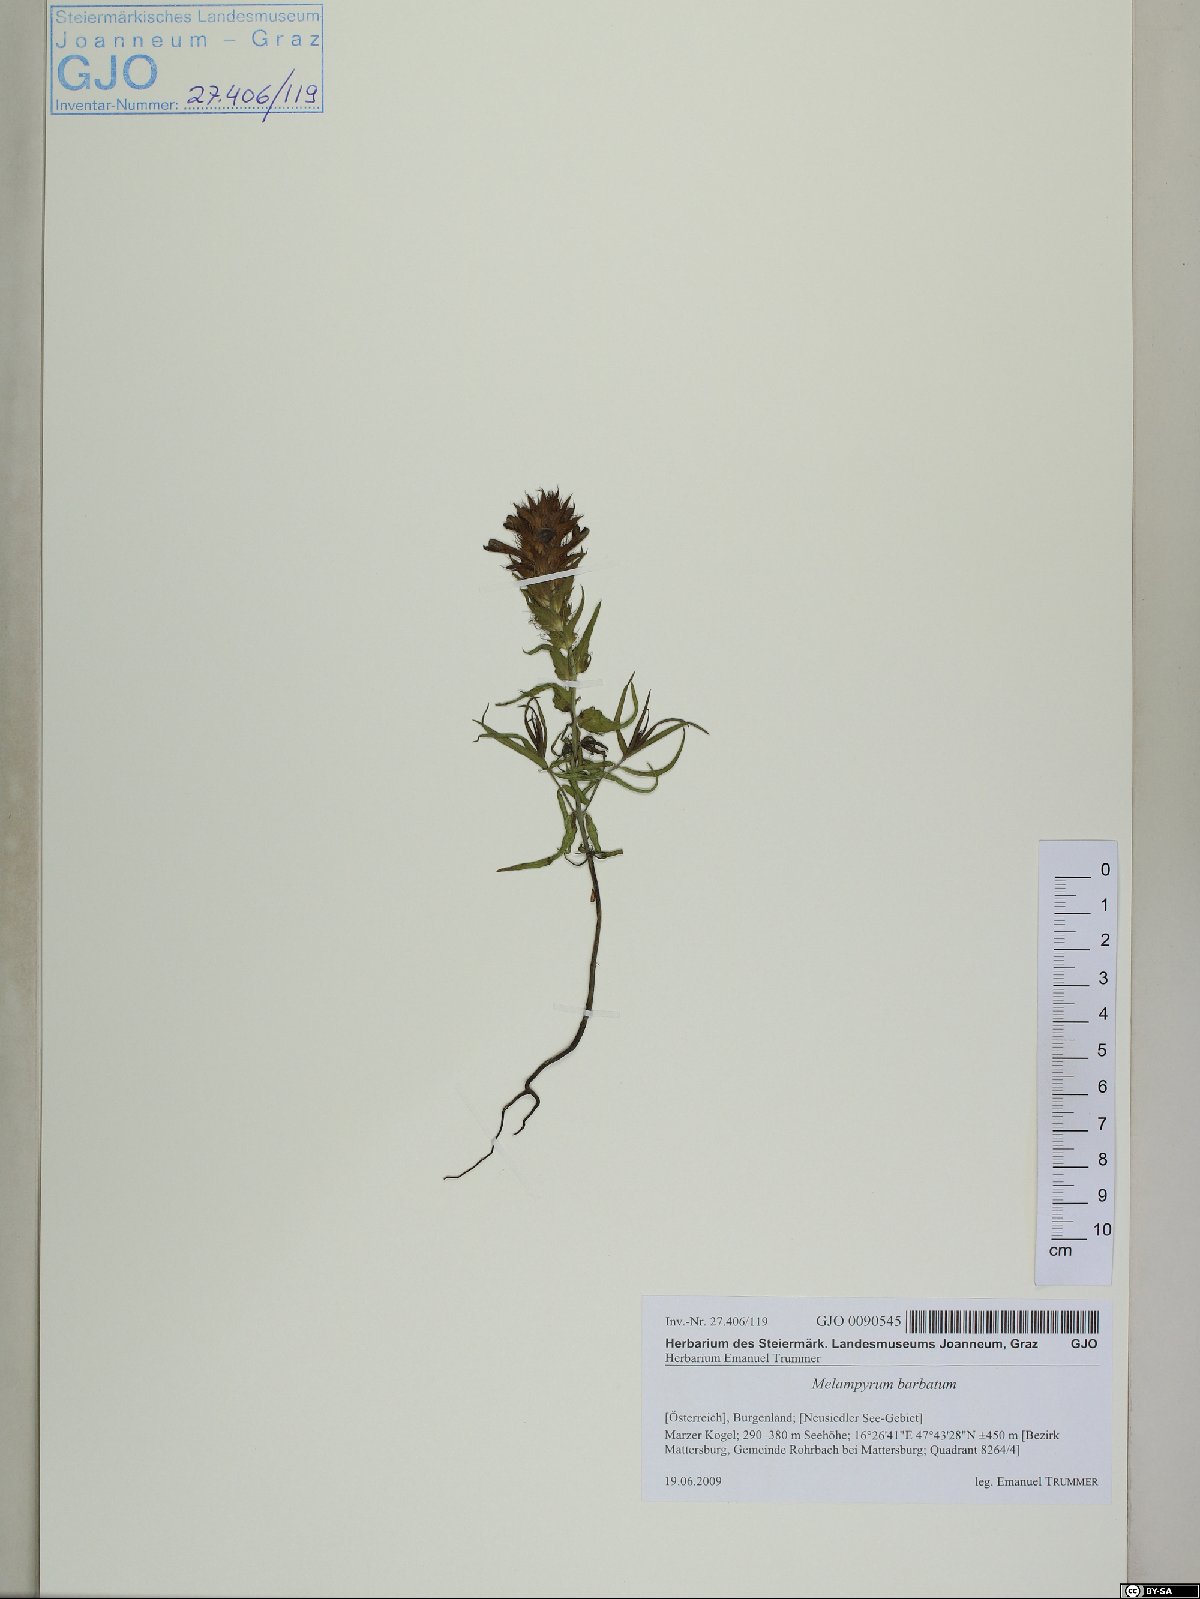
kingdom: Plantae
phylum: Tracheophyta
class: Magnoliopsida
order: Lamiales
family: Orobanchaceae
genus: Melampyrum
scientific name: Melampyrum barbatum
